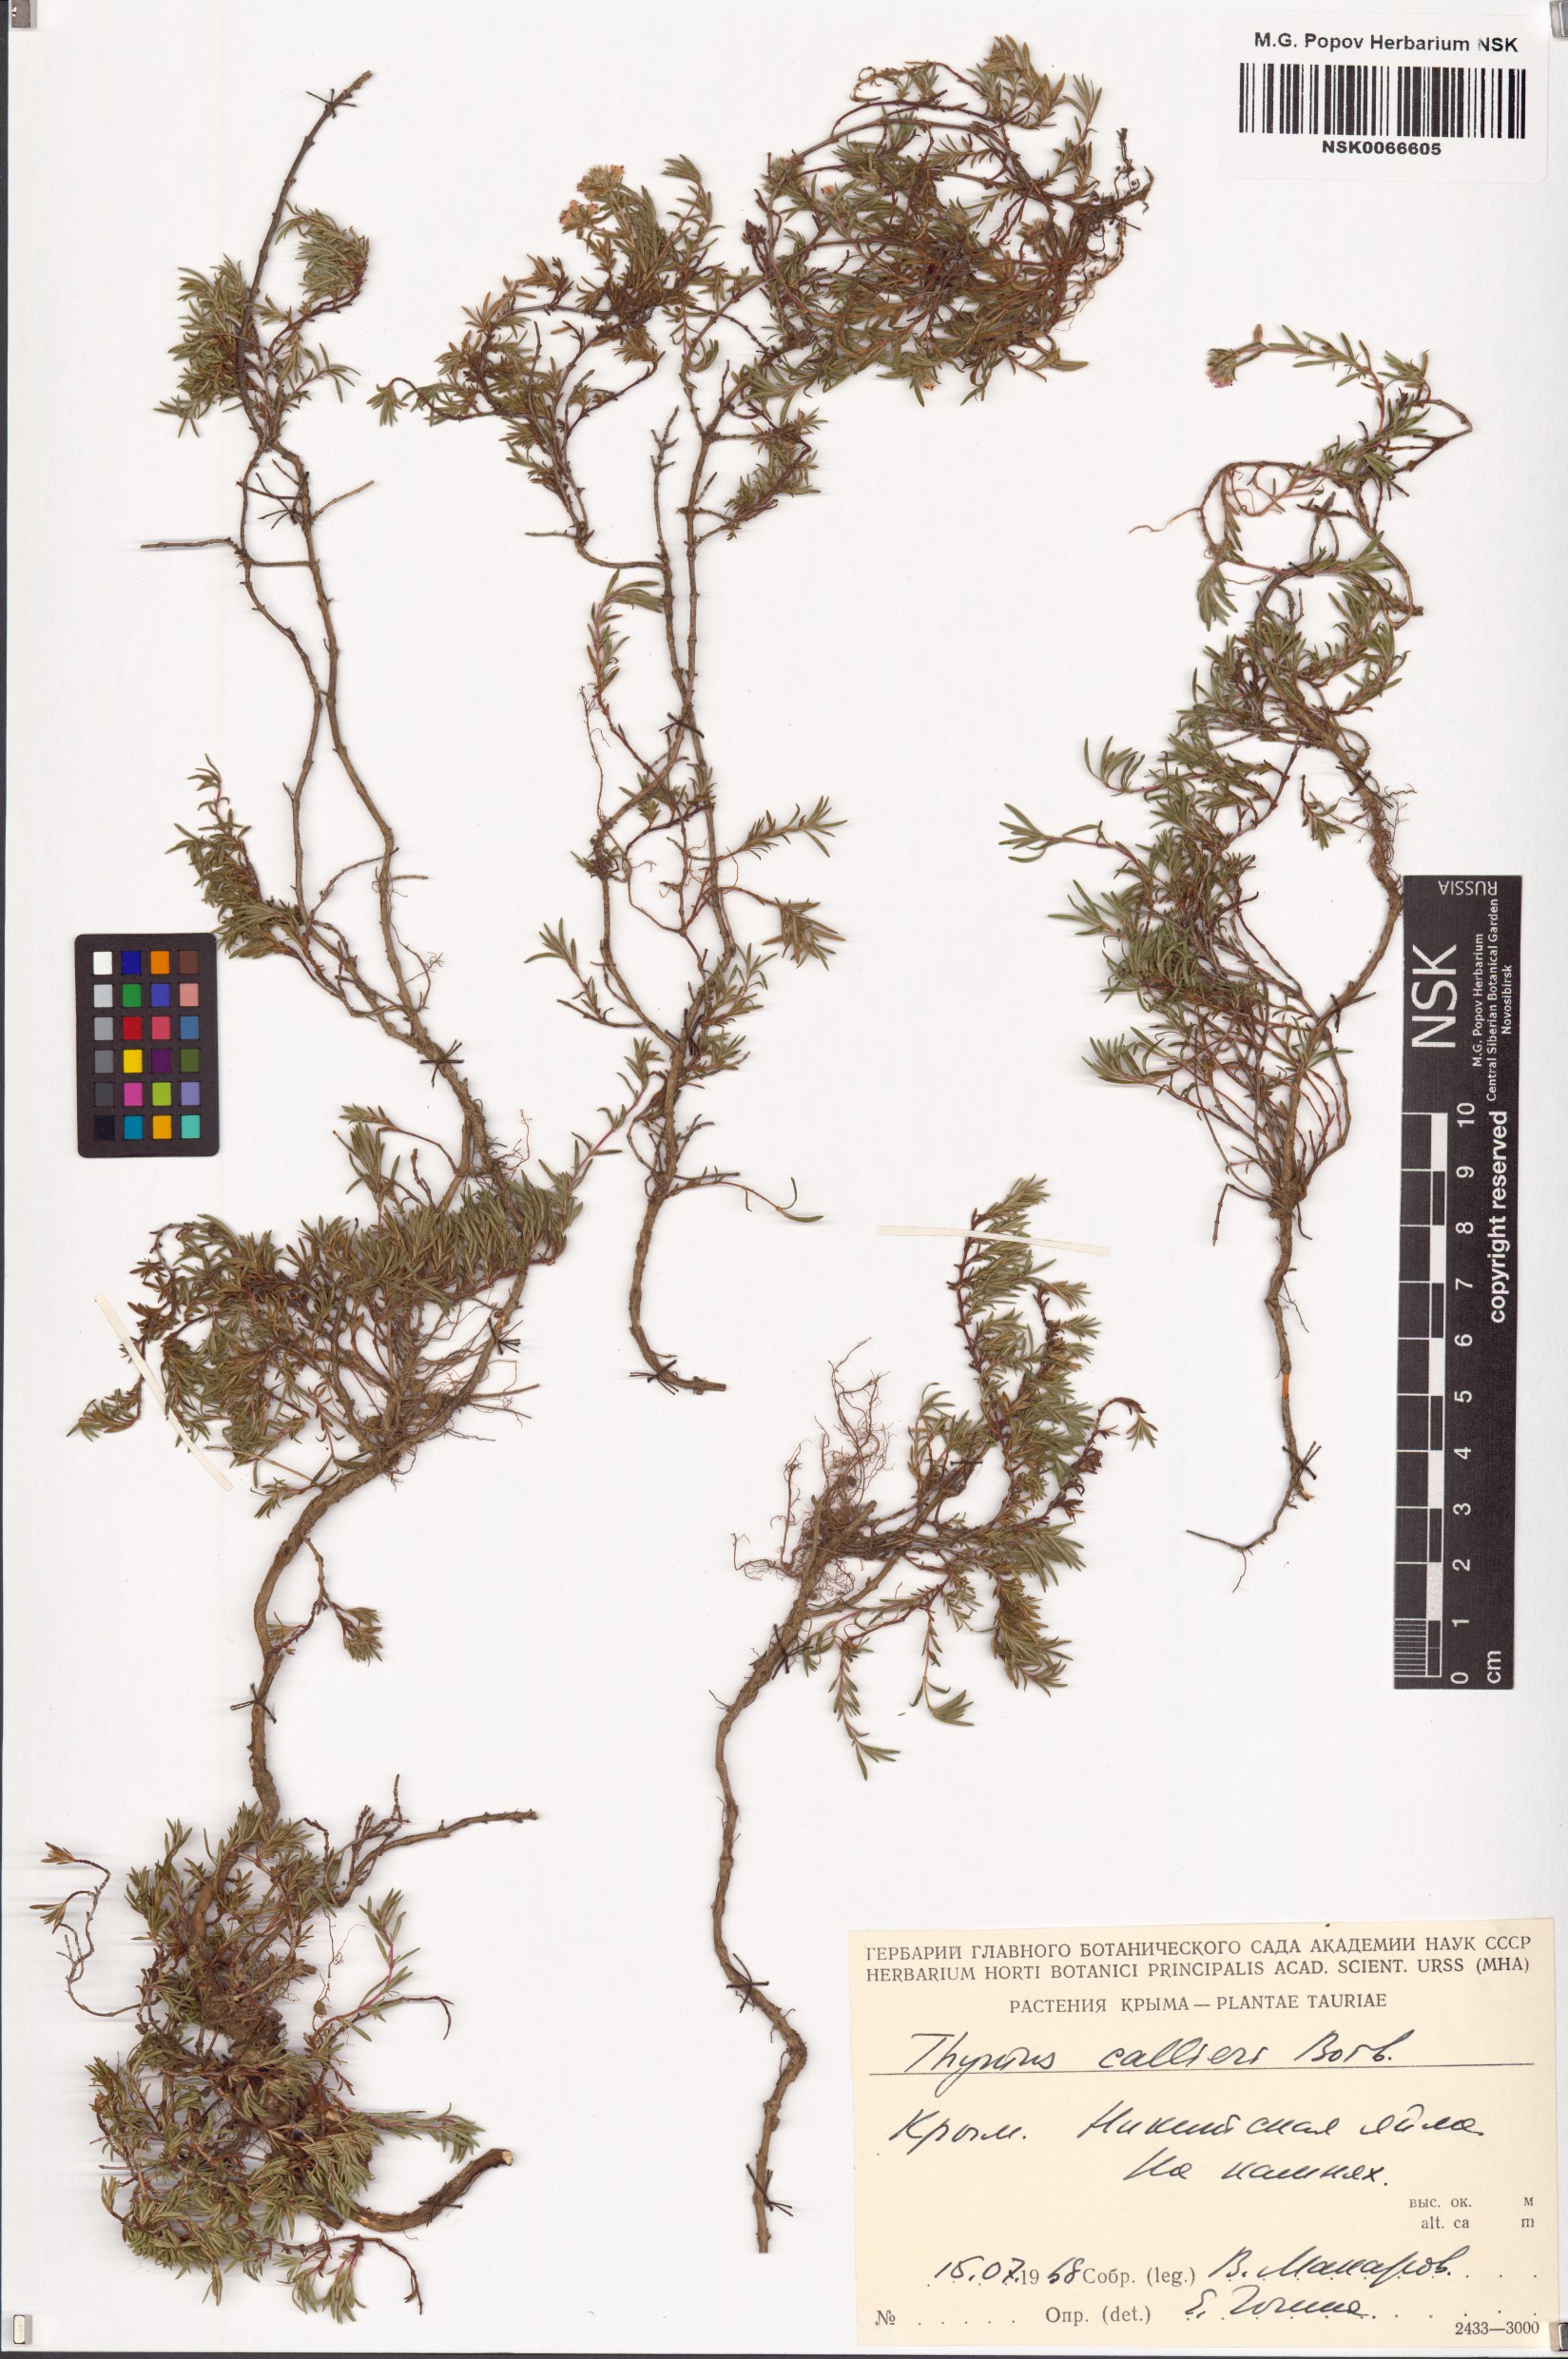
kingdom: Plantae
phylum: Tracheophyta
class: Magnoliopsida
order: Lamiales
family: Lamiaceae
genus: Thymus
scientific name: Thymus callieri
